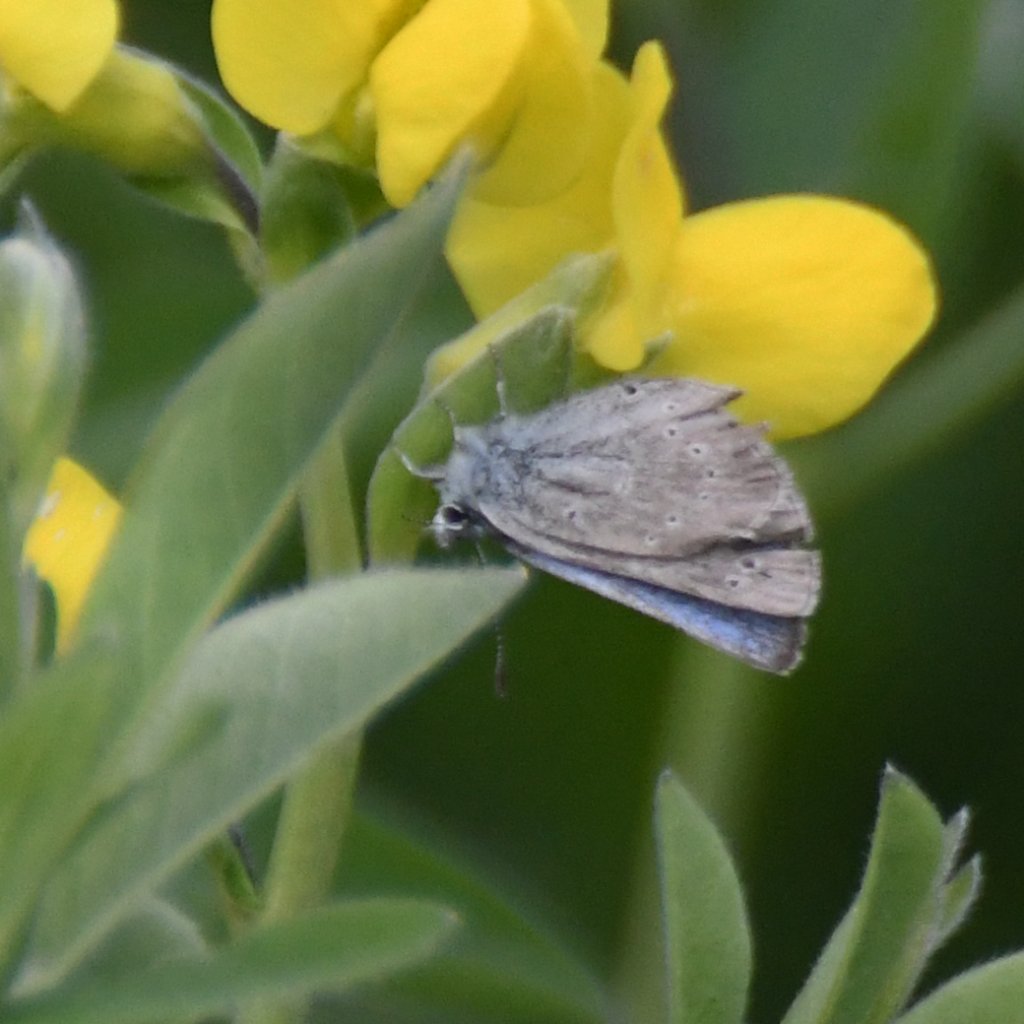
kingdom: Animalia
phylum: Arthropoda
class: Insecta
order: Lepidoptera
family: Lycaenidae
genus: Glaucopsyche
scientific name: Glaucopsyche lygdamus
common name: Silvery Blue
